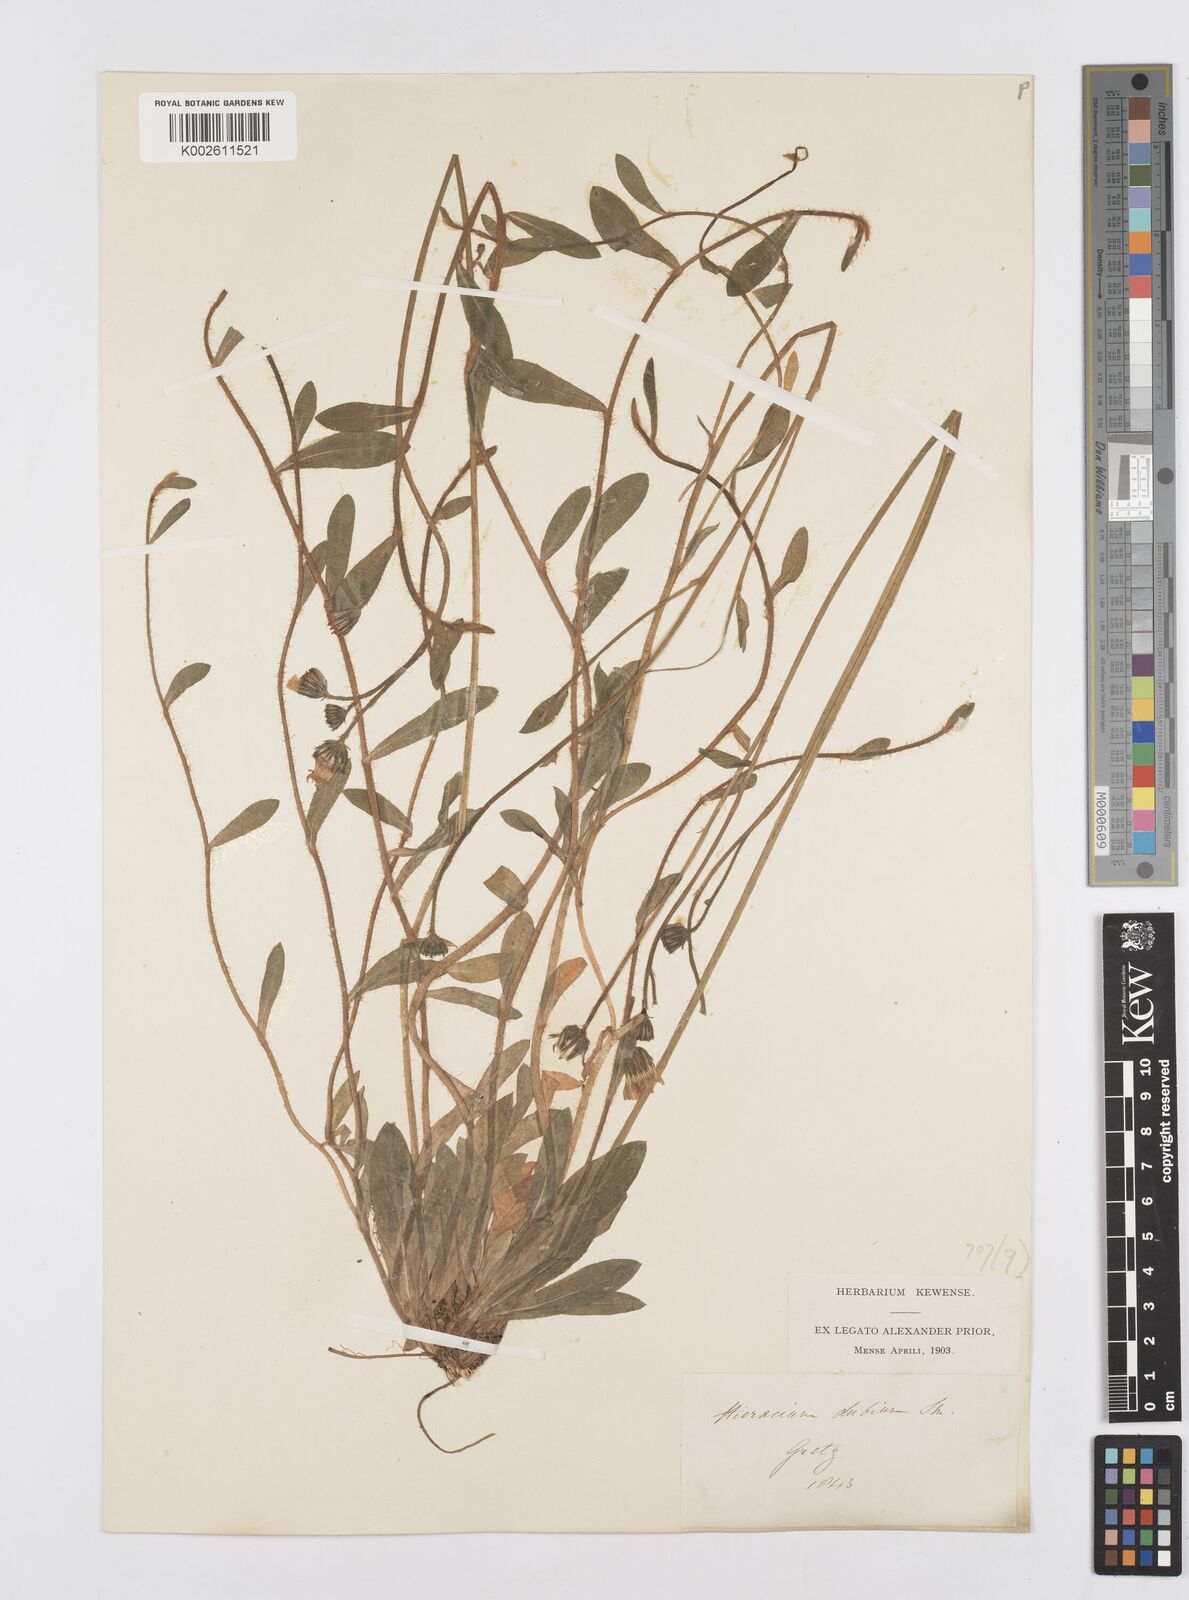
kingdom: Plantae
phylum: Tracheophyta
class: Magnoliopsida
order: Asterales
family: Asteraceae
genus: Pilosella
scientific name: Pilosella leptophyton
